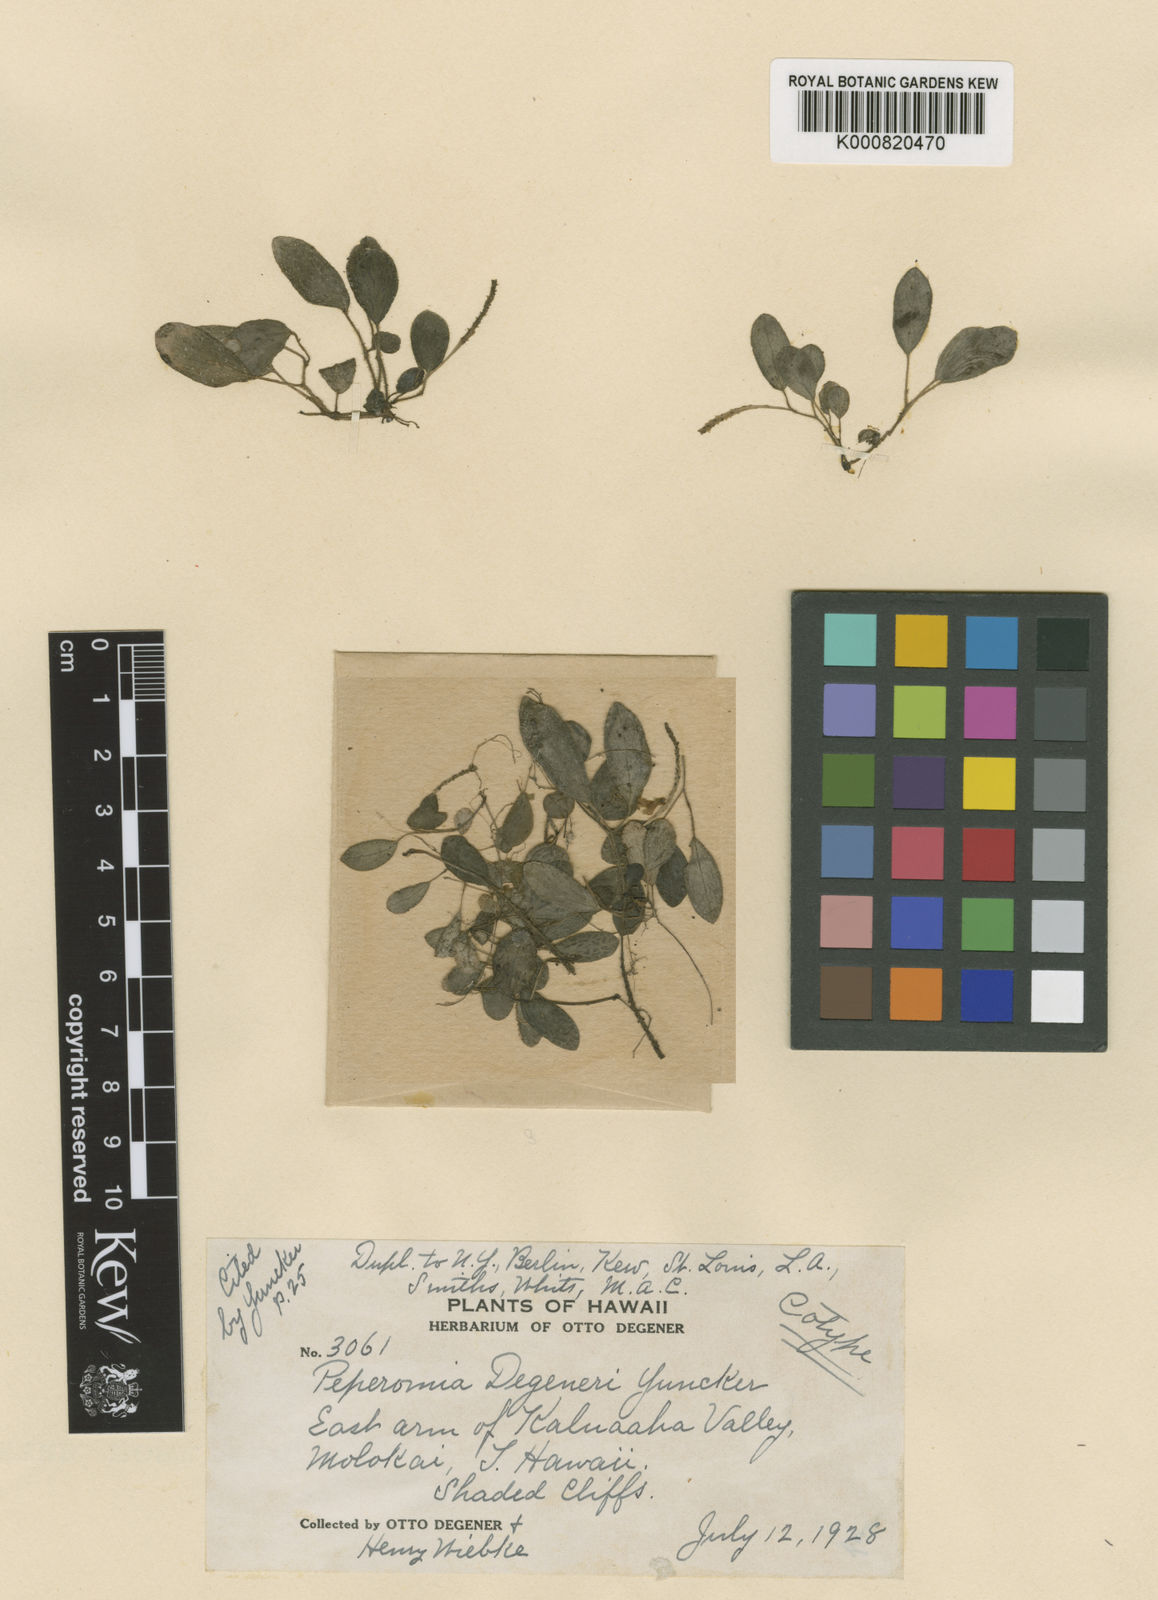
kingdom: Plantae
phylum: Tracheophyta
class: Magnoliopsida
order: Piperales
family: Piperaceae
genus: Peperomia
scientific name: Peperomia degeneri
